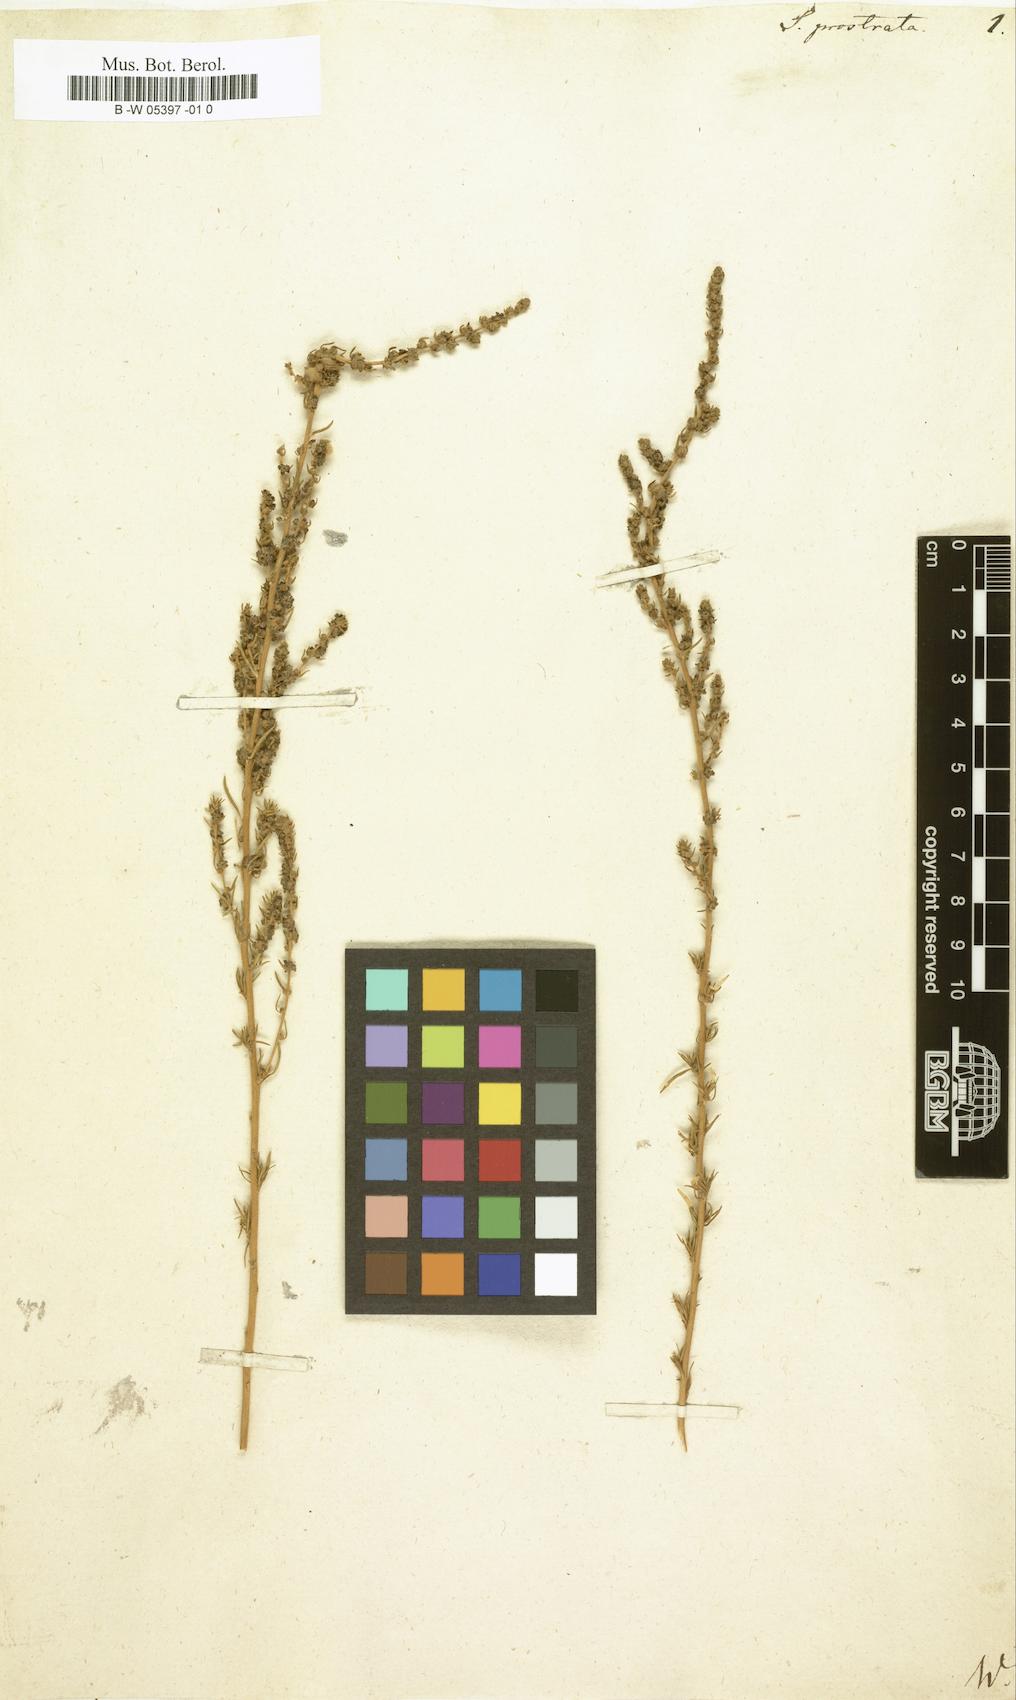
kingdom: Plantae
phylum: Tracheophyta
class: Magnoliopsida
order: Caryophyllales
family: Amaranthaceae
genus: Bassia
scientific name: Bassia
